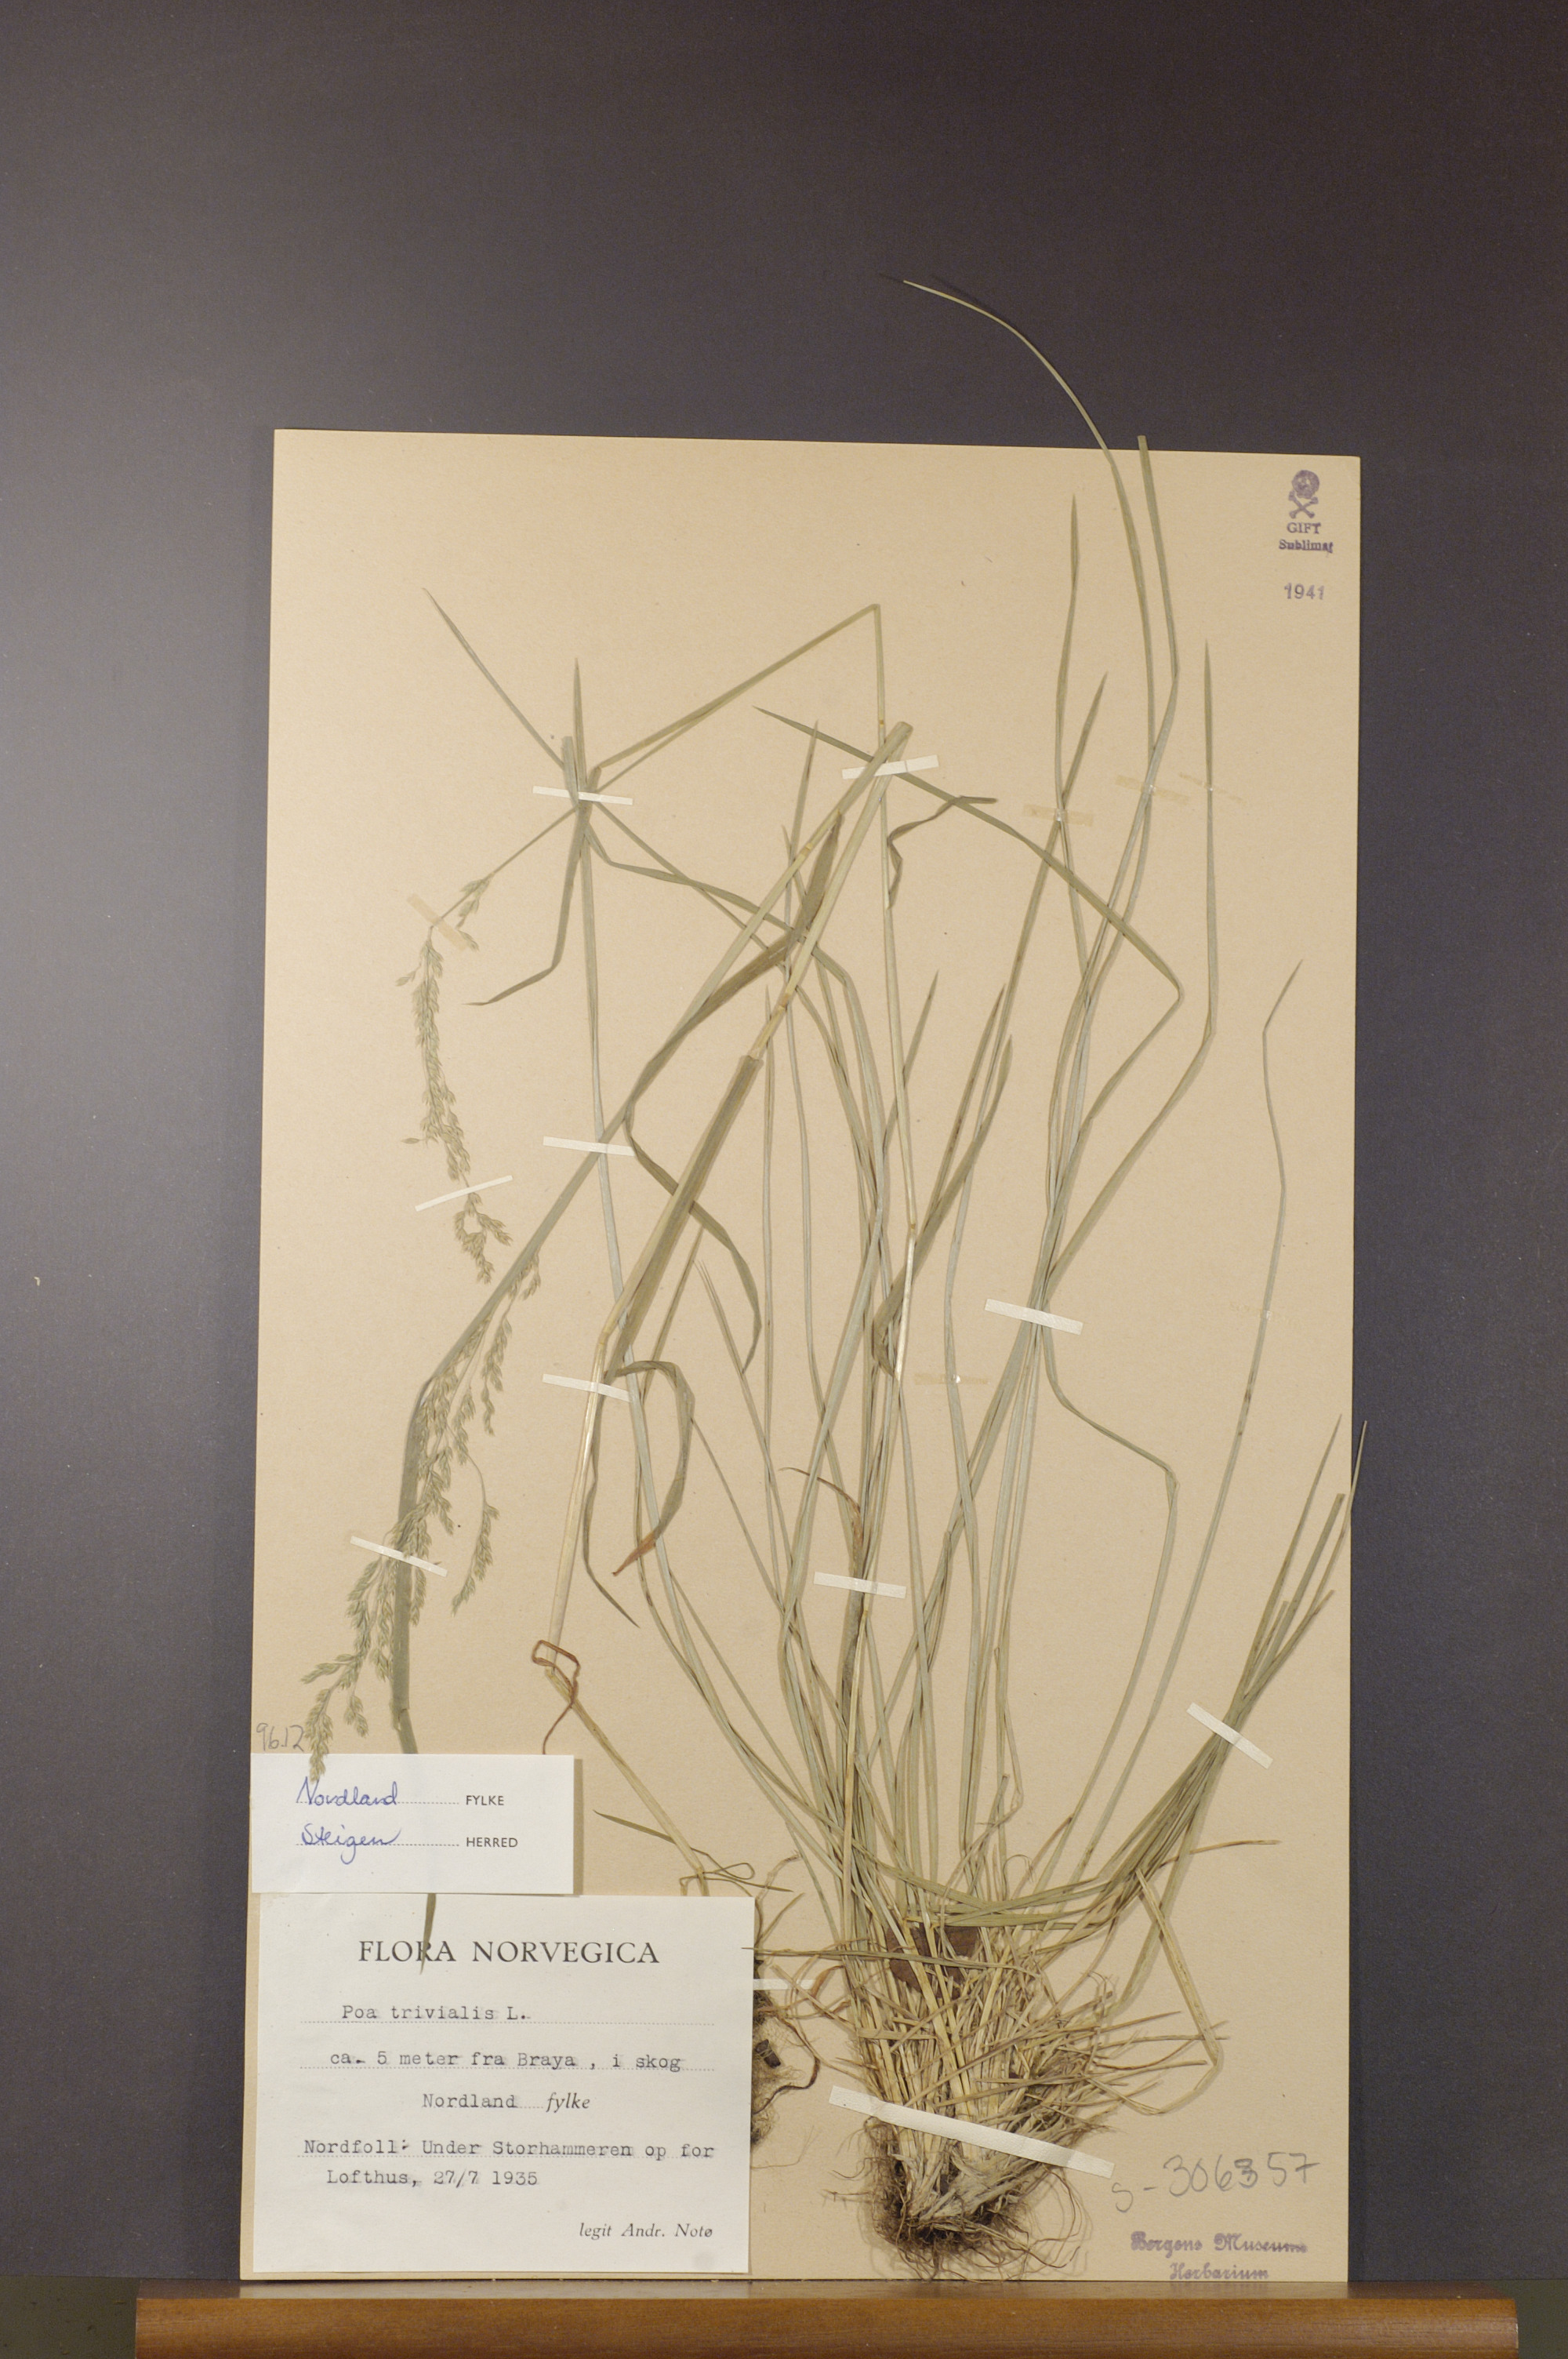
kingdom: Plantae
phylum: Tracheophyta
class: Liliopsida
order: Poales
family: Poaceae
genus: Poa
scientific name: Poa trivialis
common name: Rough bluegrass
